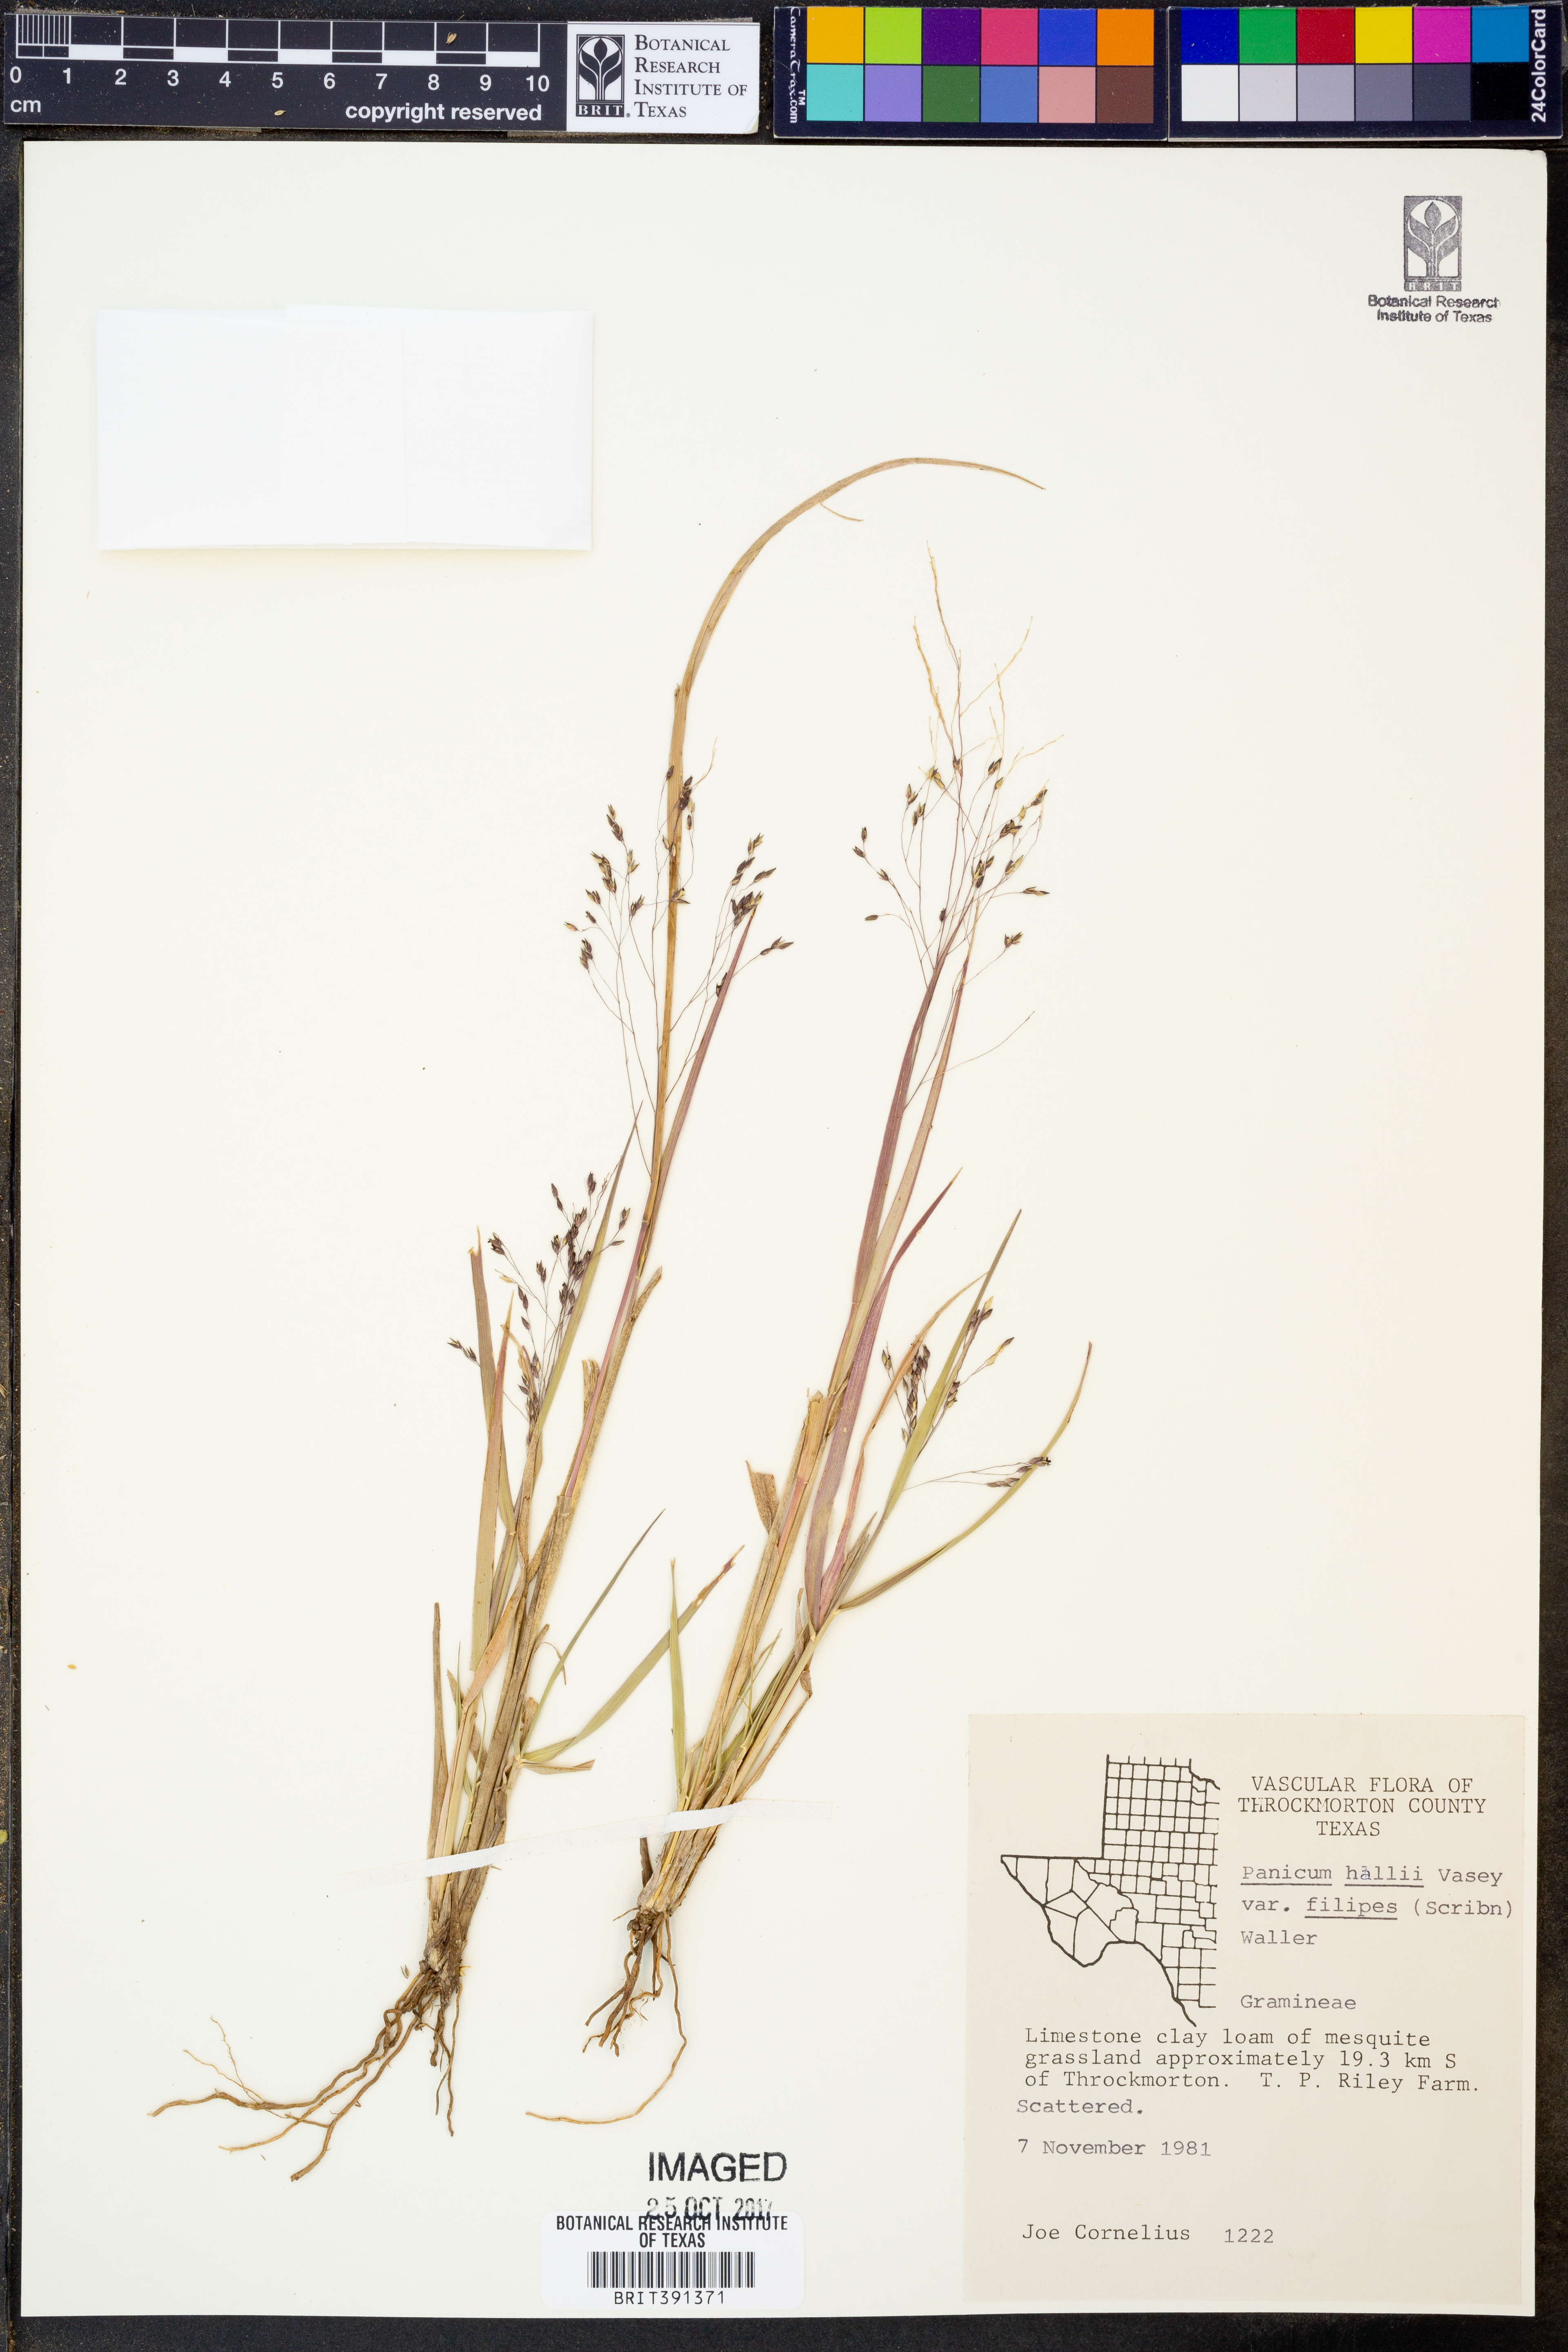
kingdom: Plantae
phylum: Tracheophyta
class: Liliopsida
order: Poales
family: Poaceae
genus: Panicum
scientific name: Panicum hallii
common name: Hall's witchgrass
